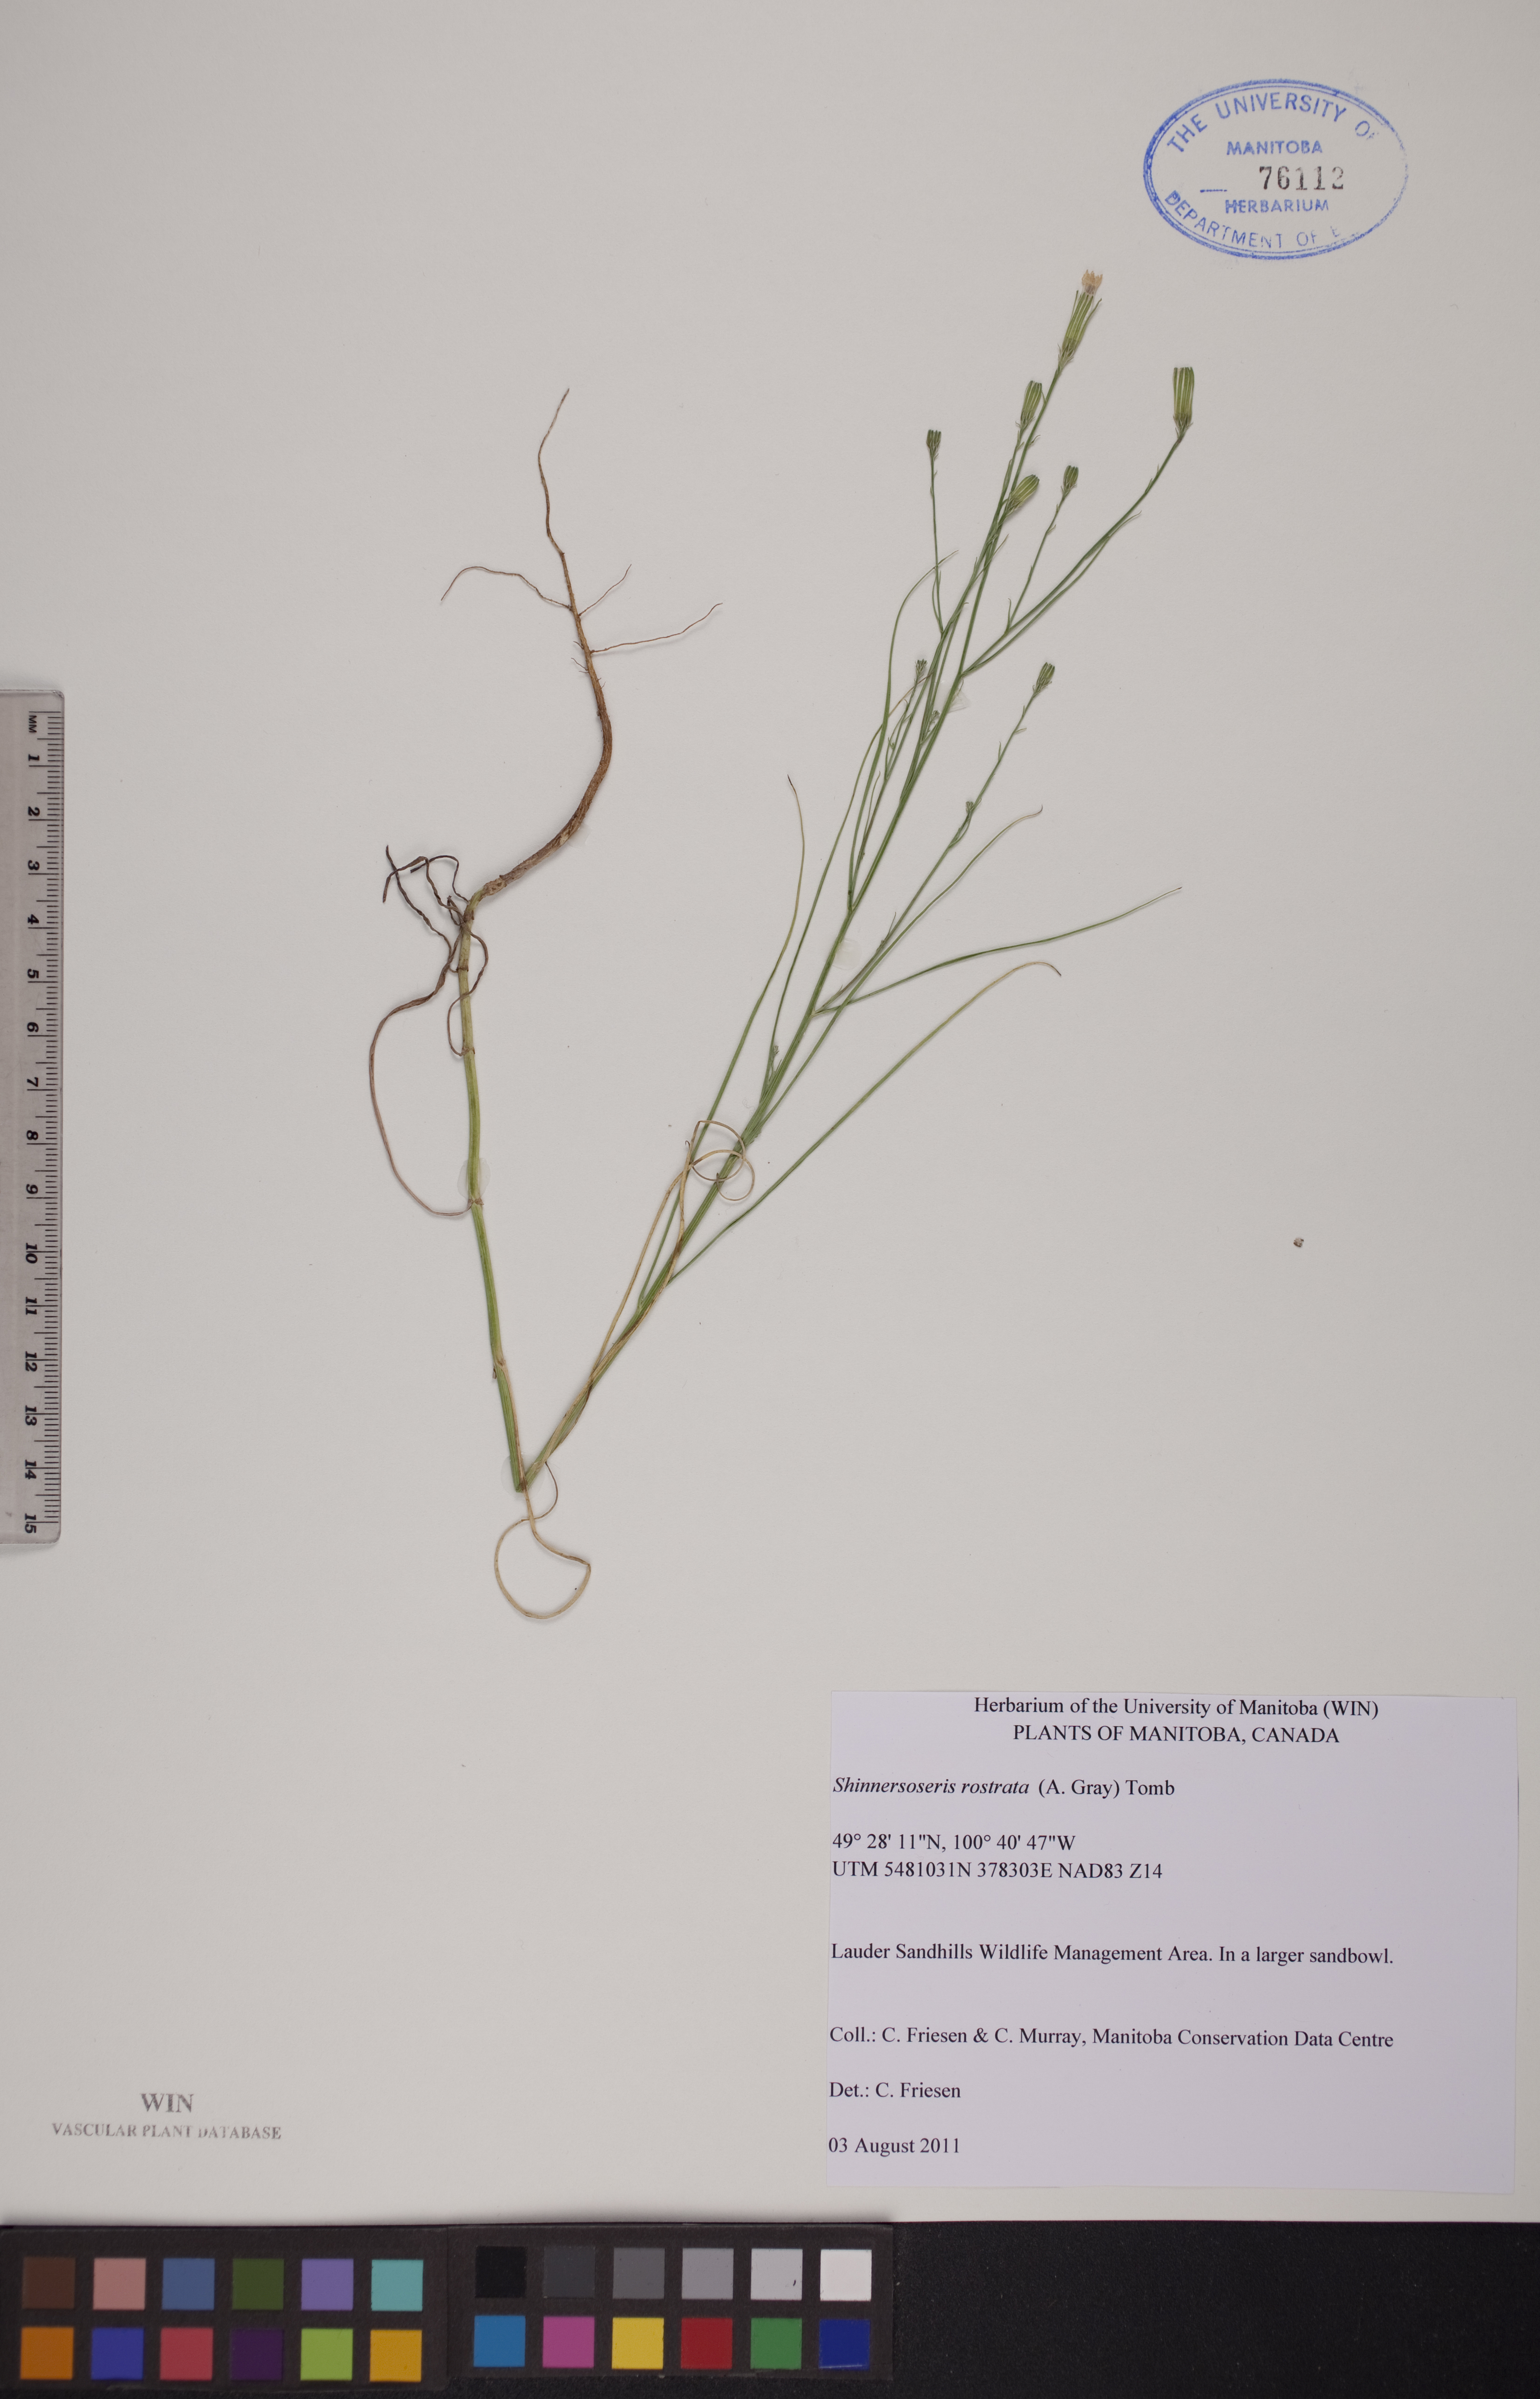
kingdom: Plantae
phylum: Tracheophyta
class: Magnoliopsida
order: Asterales
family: Asteraceae
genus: Shinnersoseris
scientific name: Shinnersoseris rostrata
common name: Annual skeleton-weed
